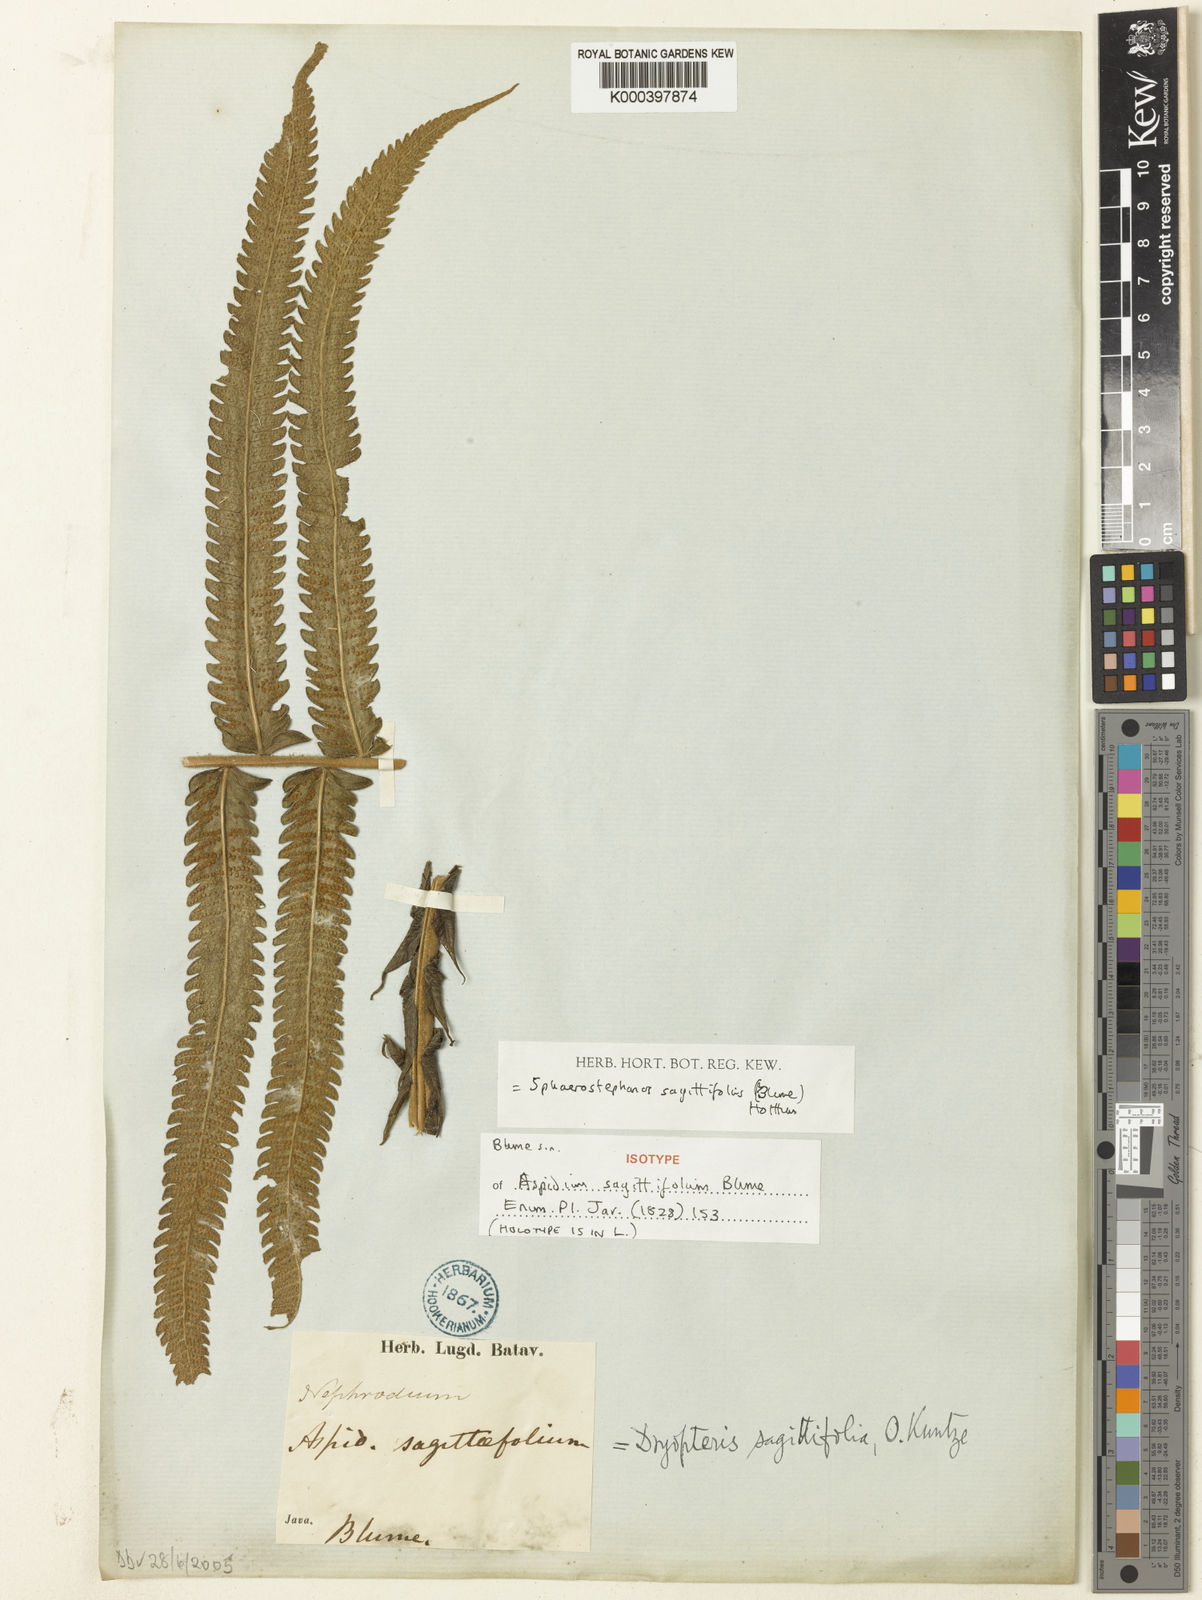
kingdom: Plantae
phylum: Tracheophyta
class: Polypodiopsida
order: Polypodiales
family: Thelypteridaceae
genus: Sphaerostephanos
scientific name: Sphaerostephanos sagittifolius
